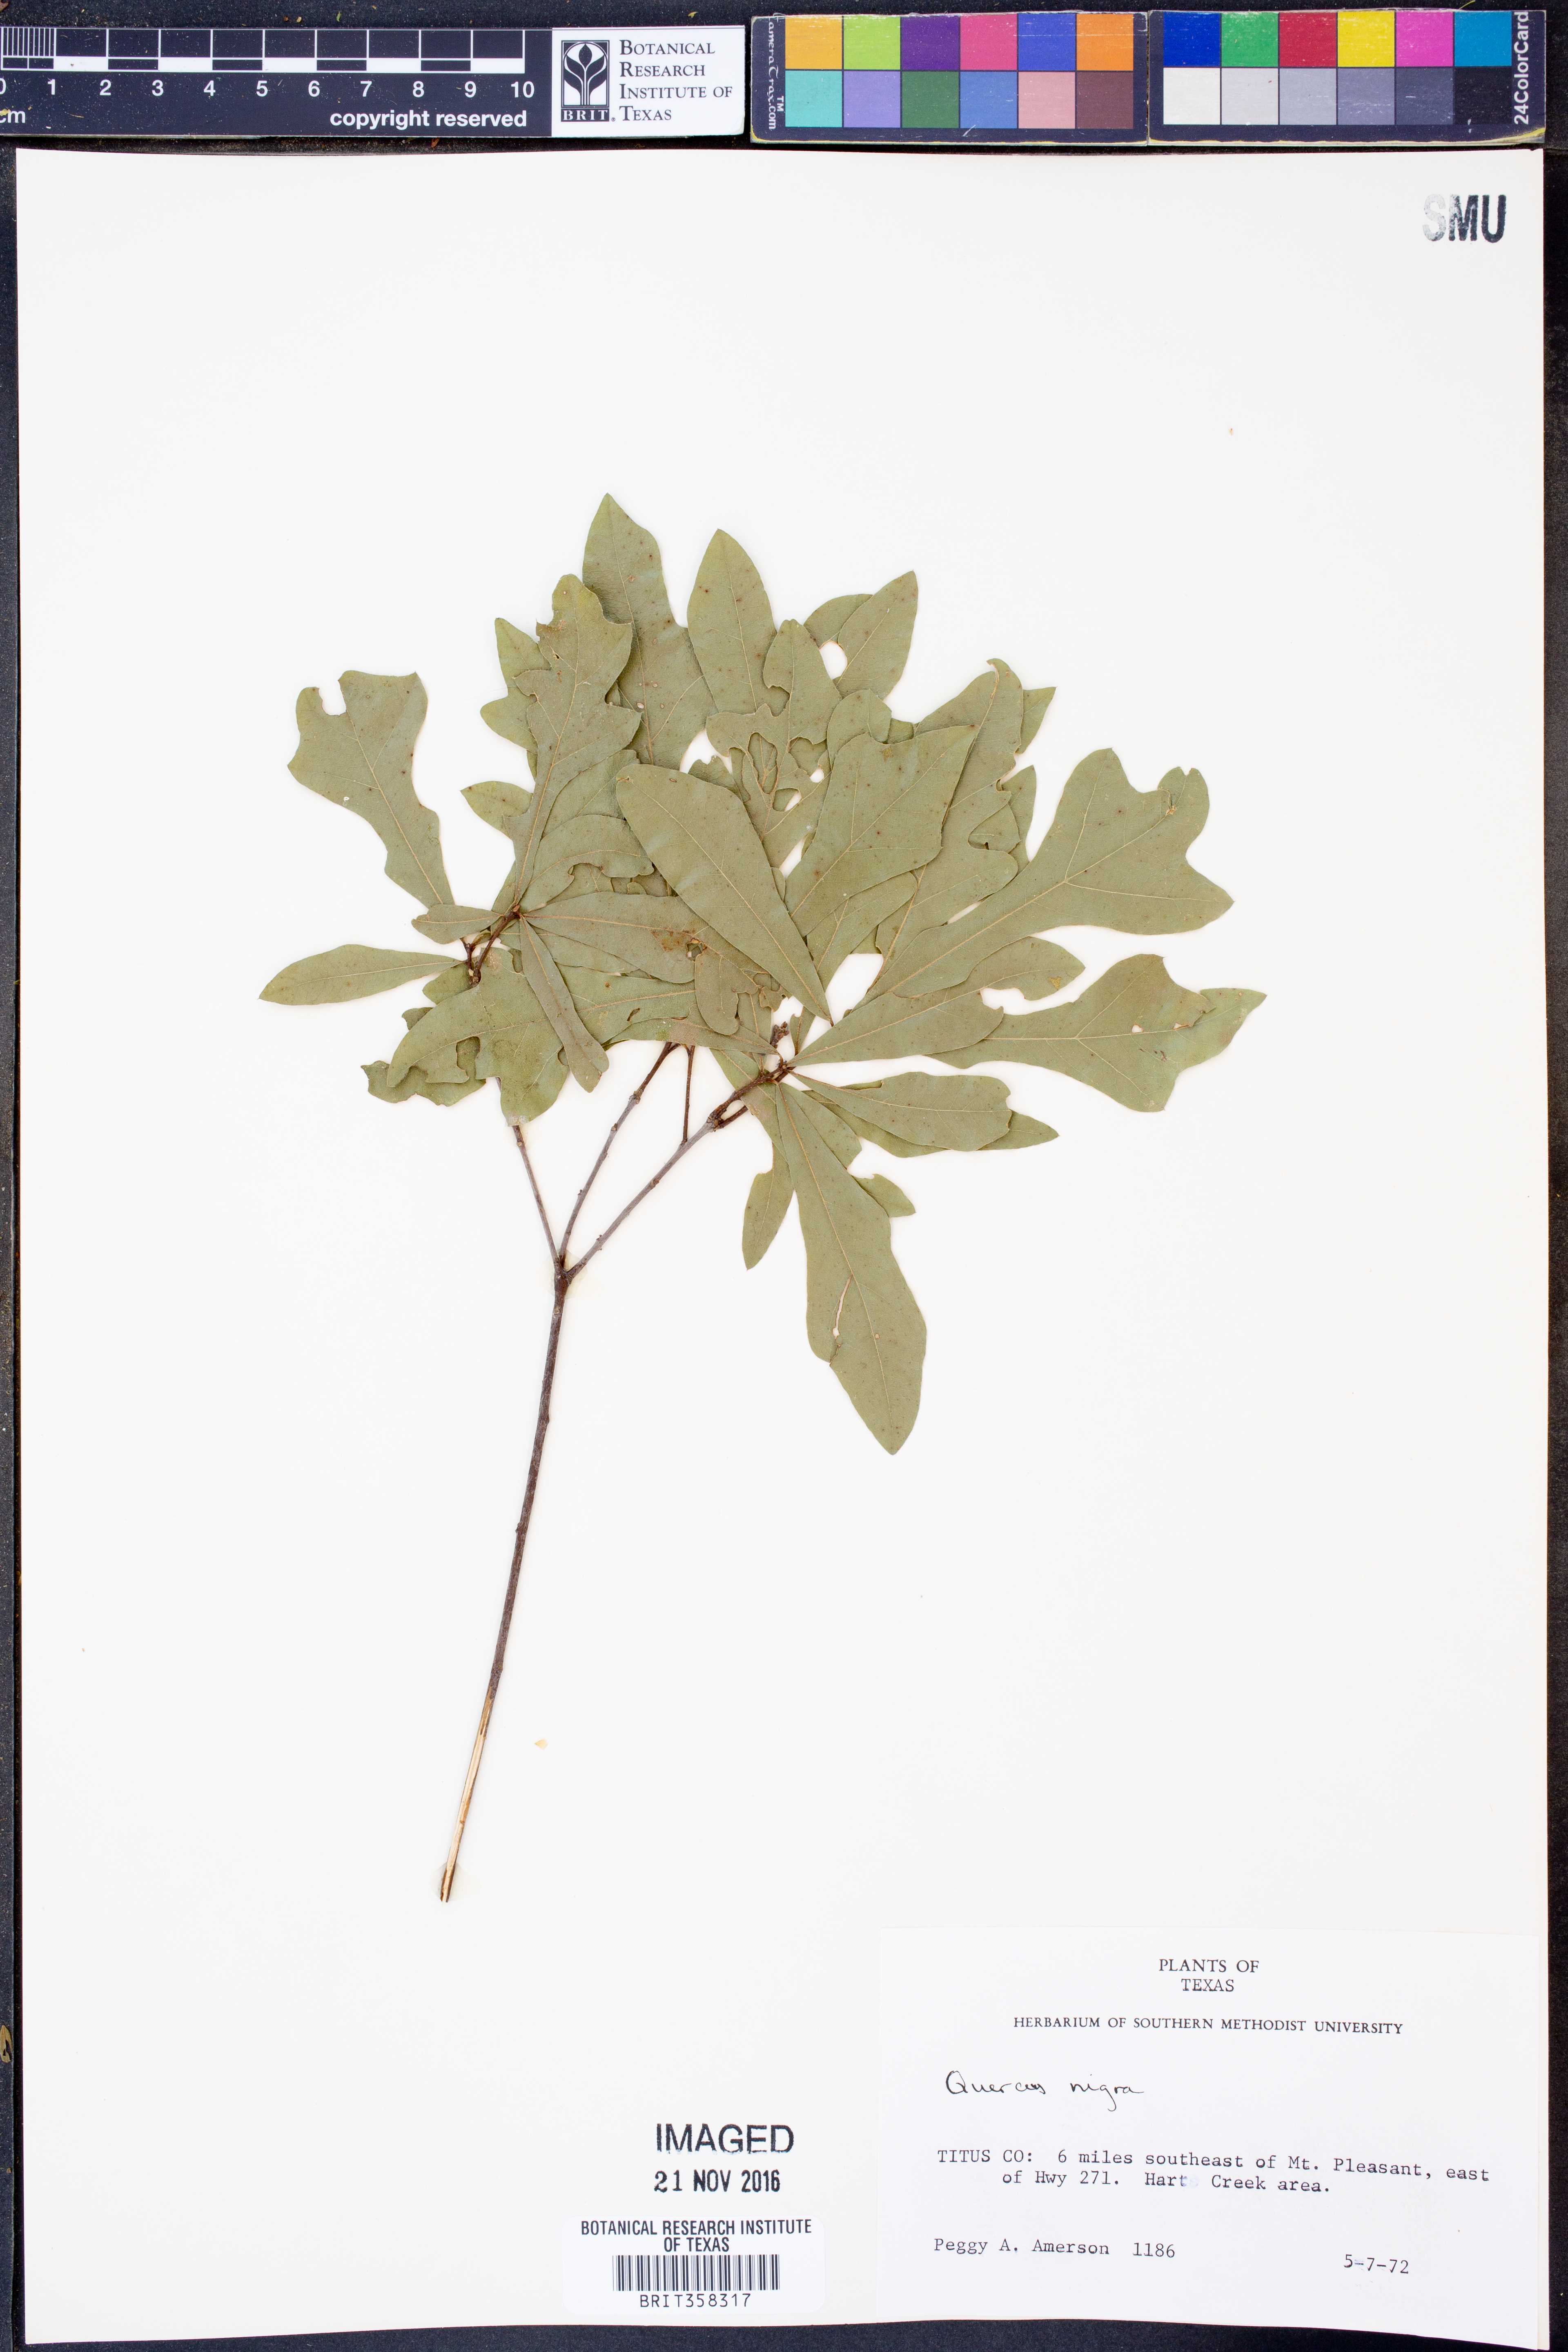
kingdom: Plantae
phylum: Tracheophyta
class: Magnoliopsida
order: Fagales
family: Fagaceae
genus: Quercus
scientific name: Quercus nigra
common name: Water oak
